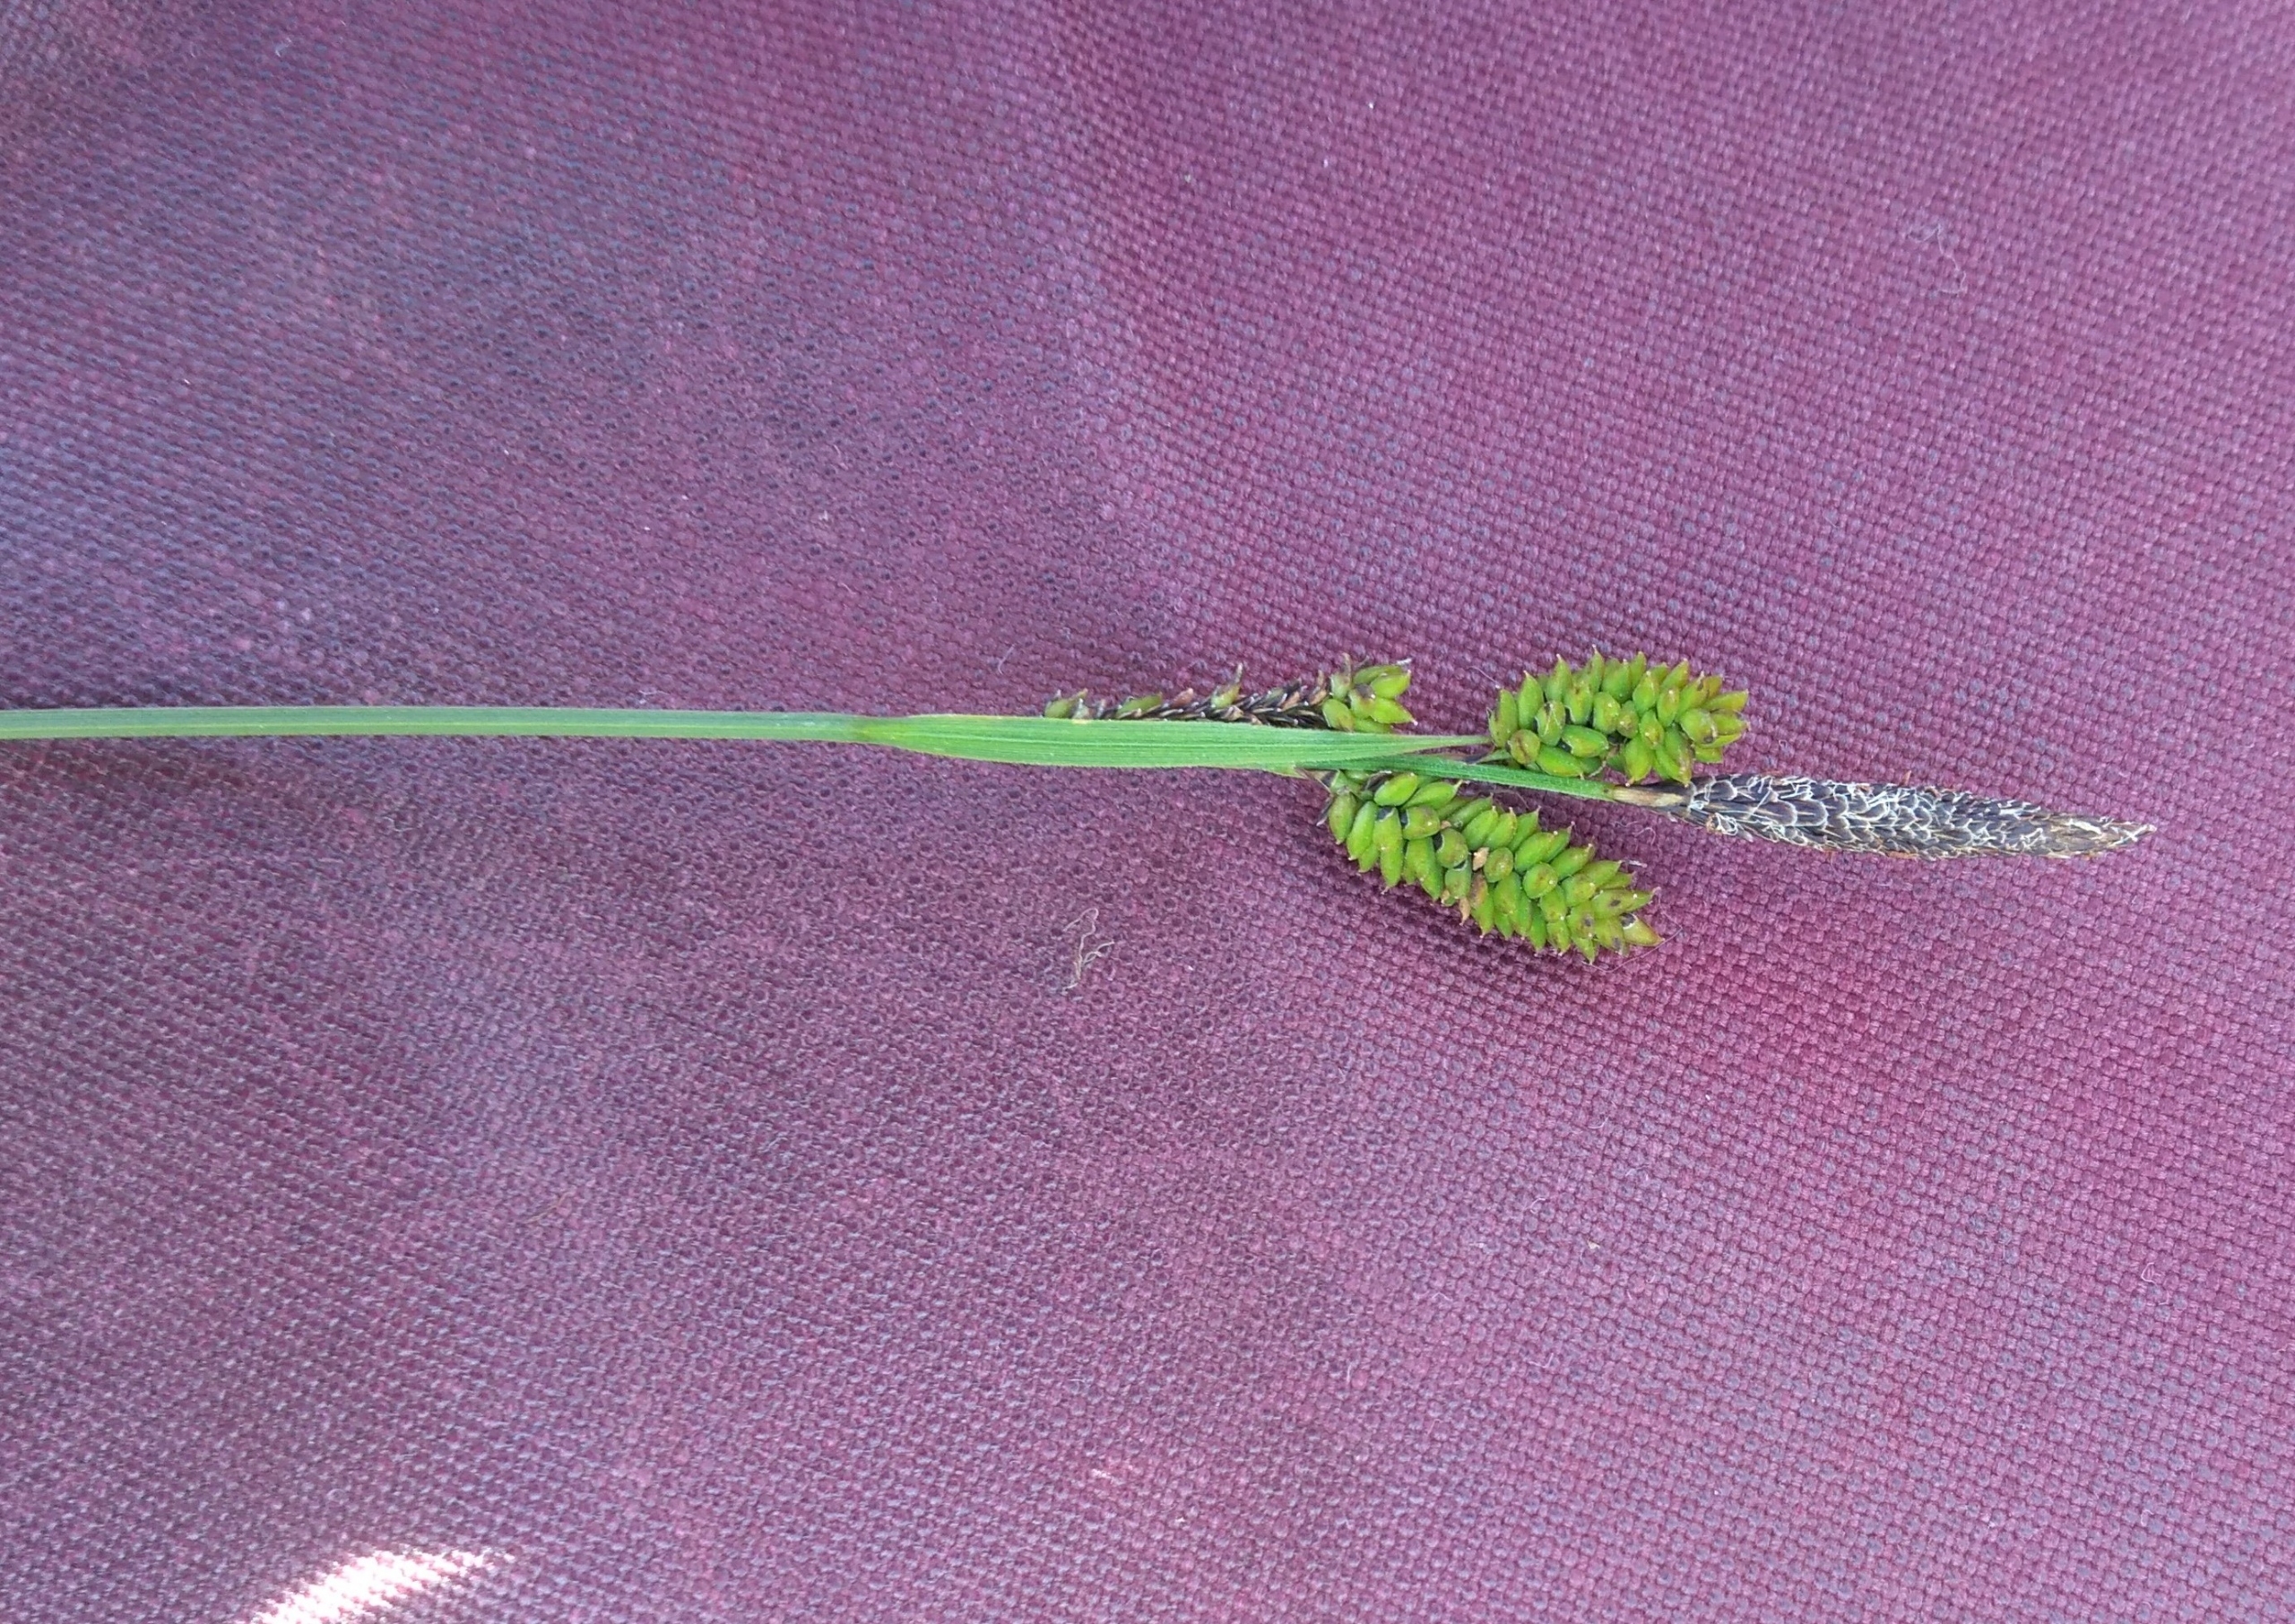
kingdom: Plantae
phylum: Tracheophyta
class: Liliopsida
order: Poales
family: Cyperaceae
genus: Carex
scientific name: Carex cespitosa
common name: Tue-star
